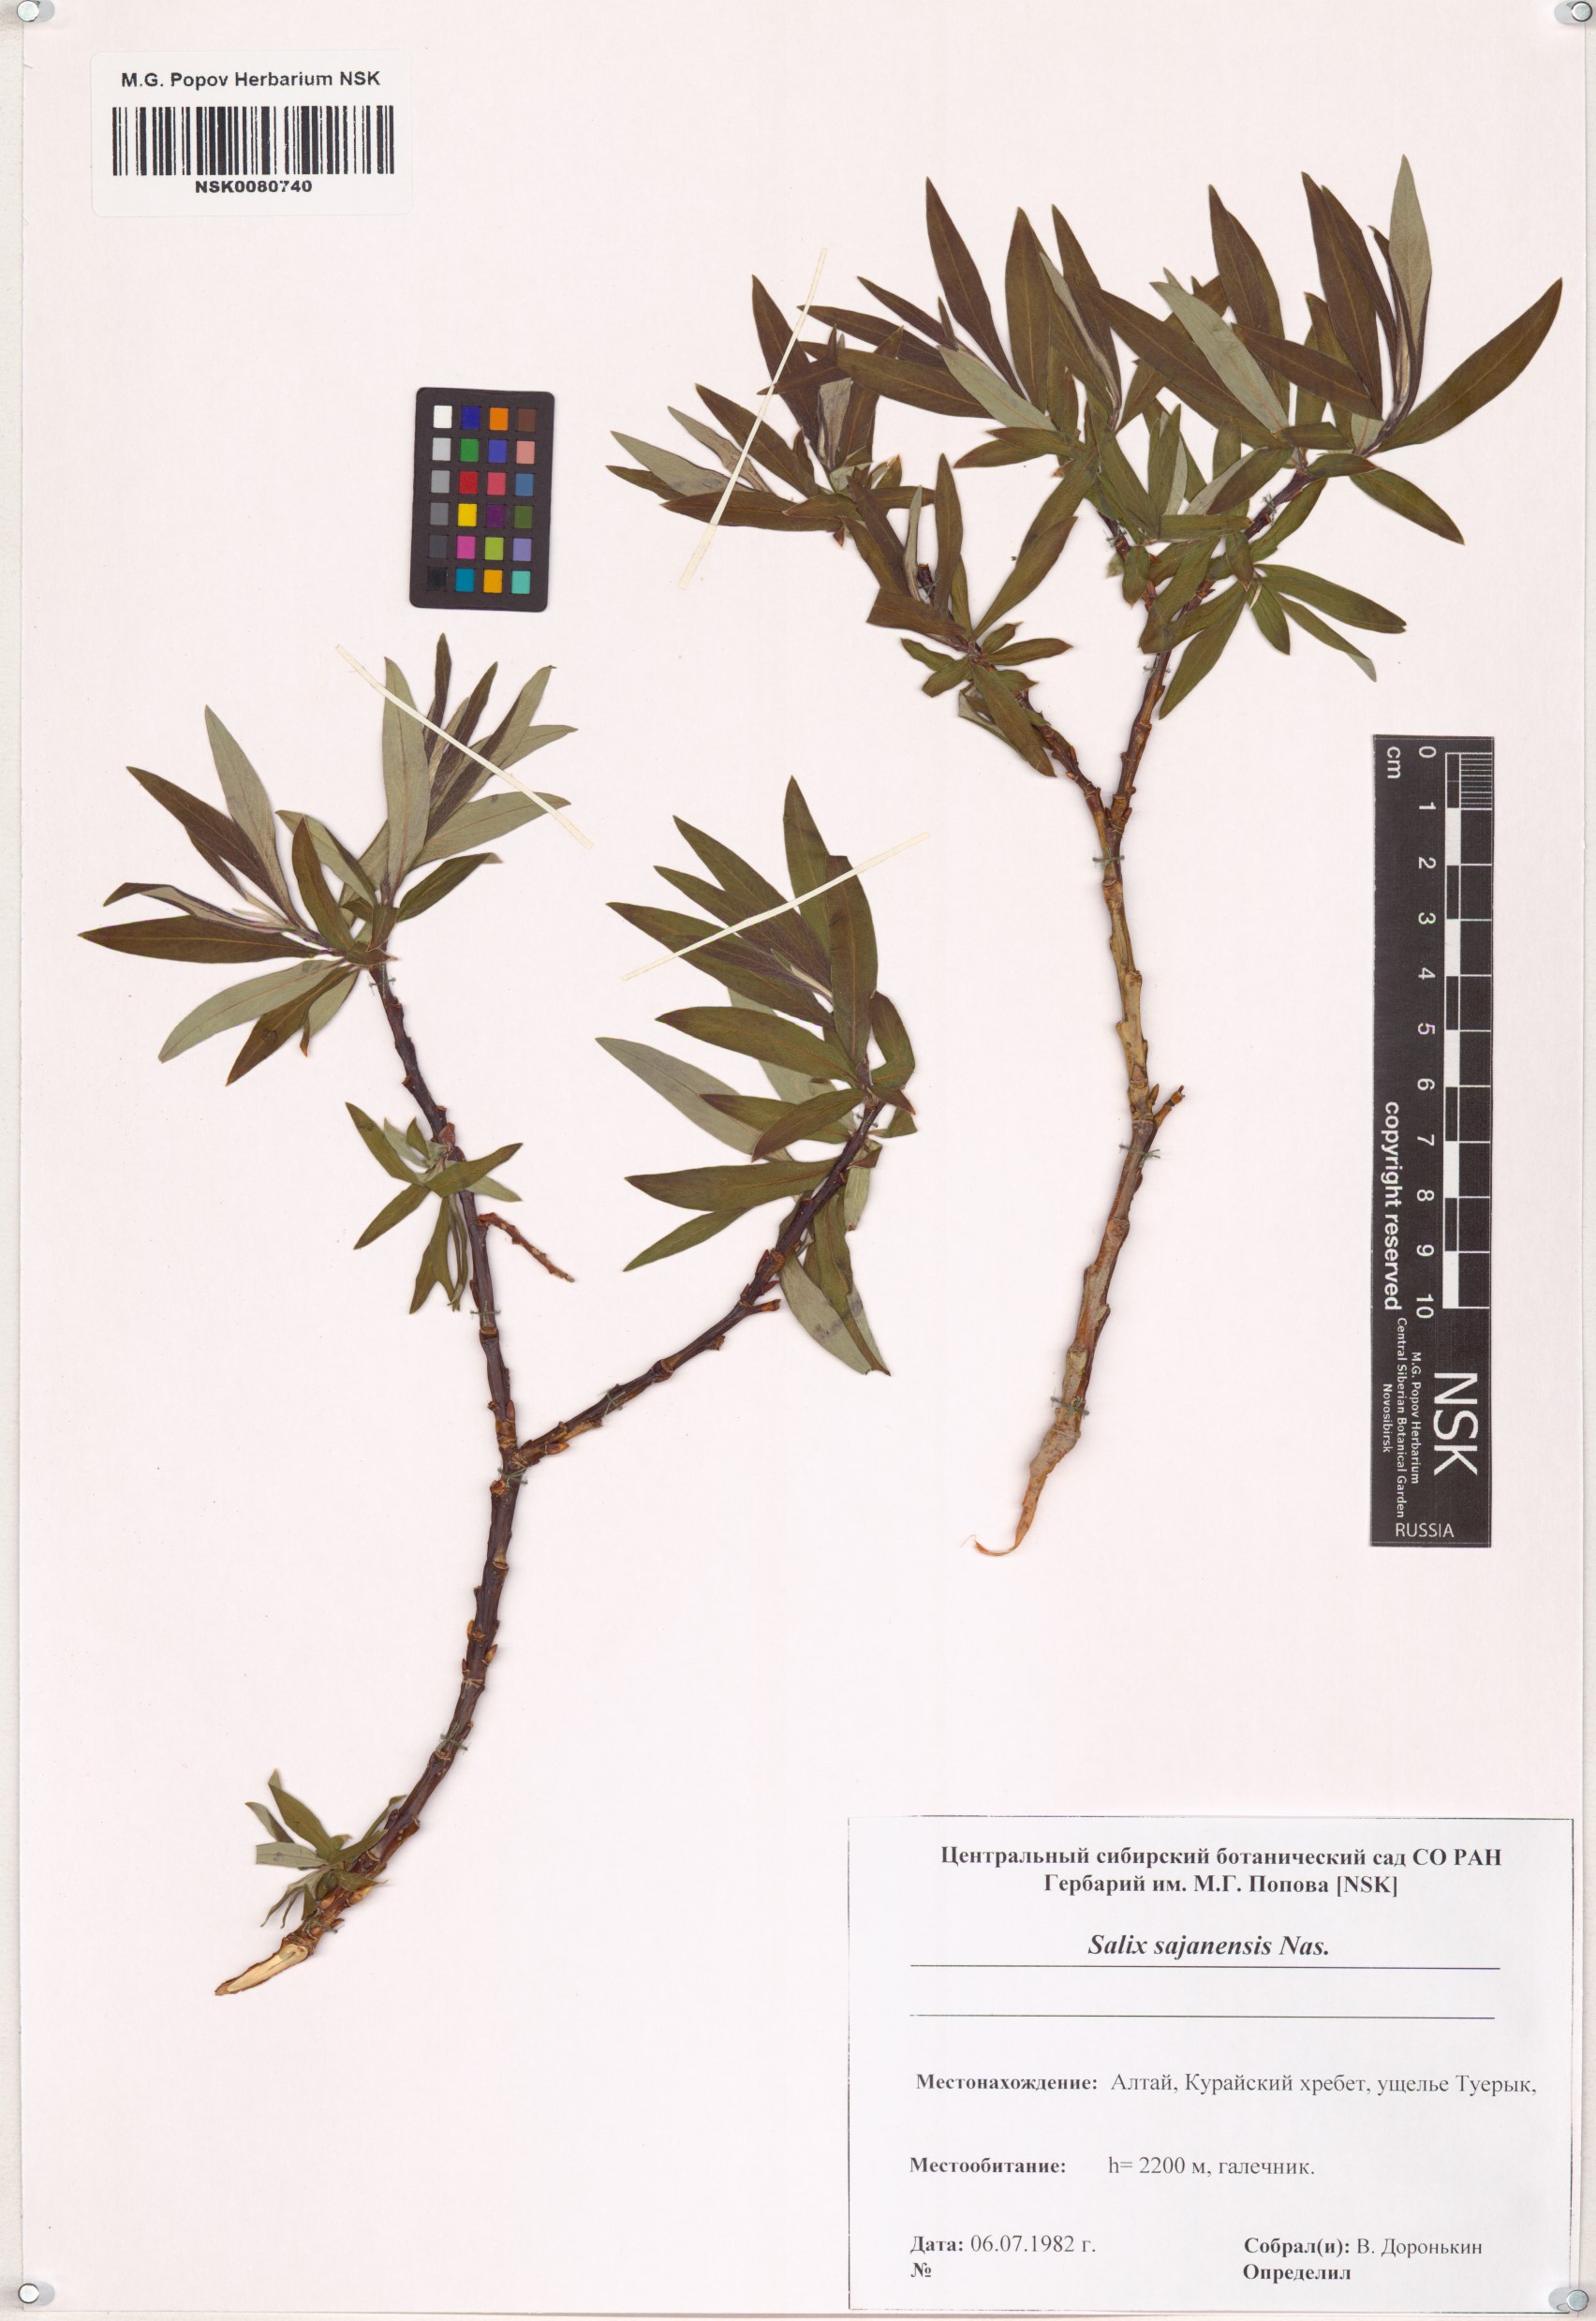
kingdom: Plantae
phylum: Tracheophyta
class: Magnoliopsida
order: Malpighiales
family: Salicaceae
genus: Salix
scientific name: Salix sajanensis
